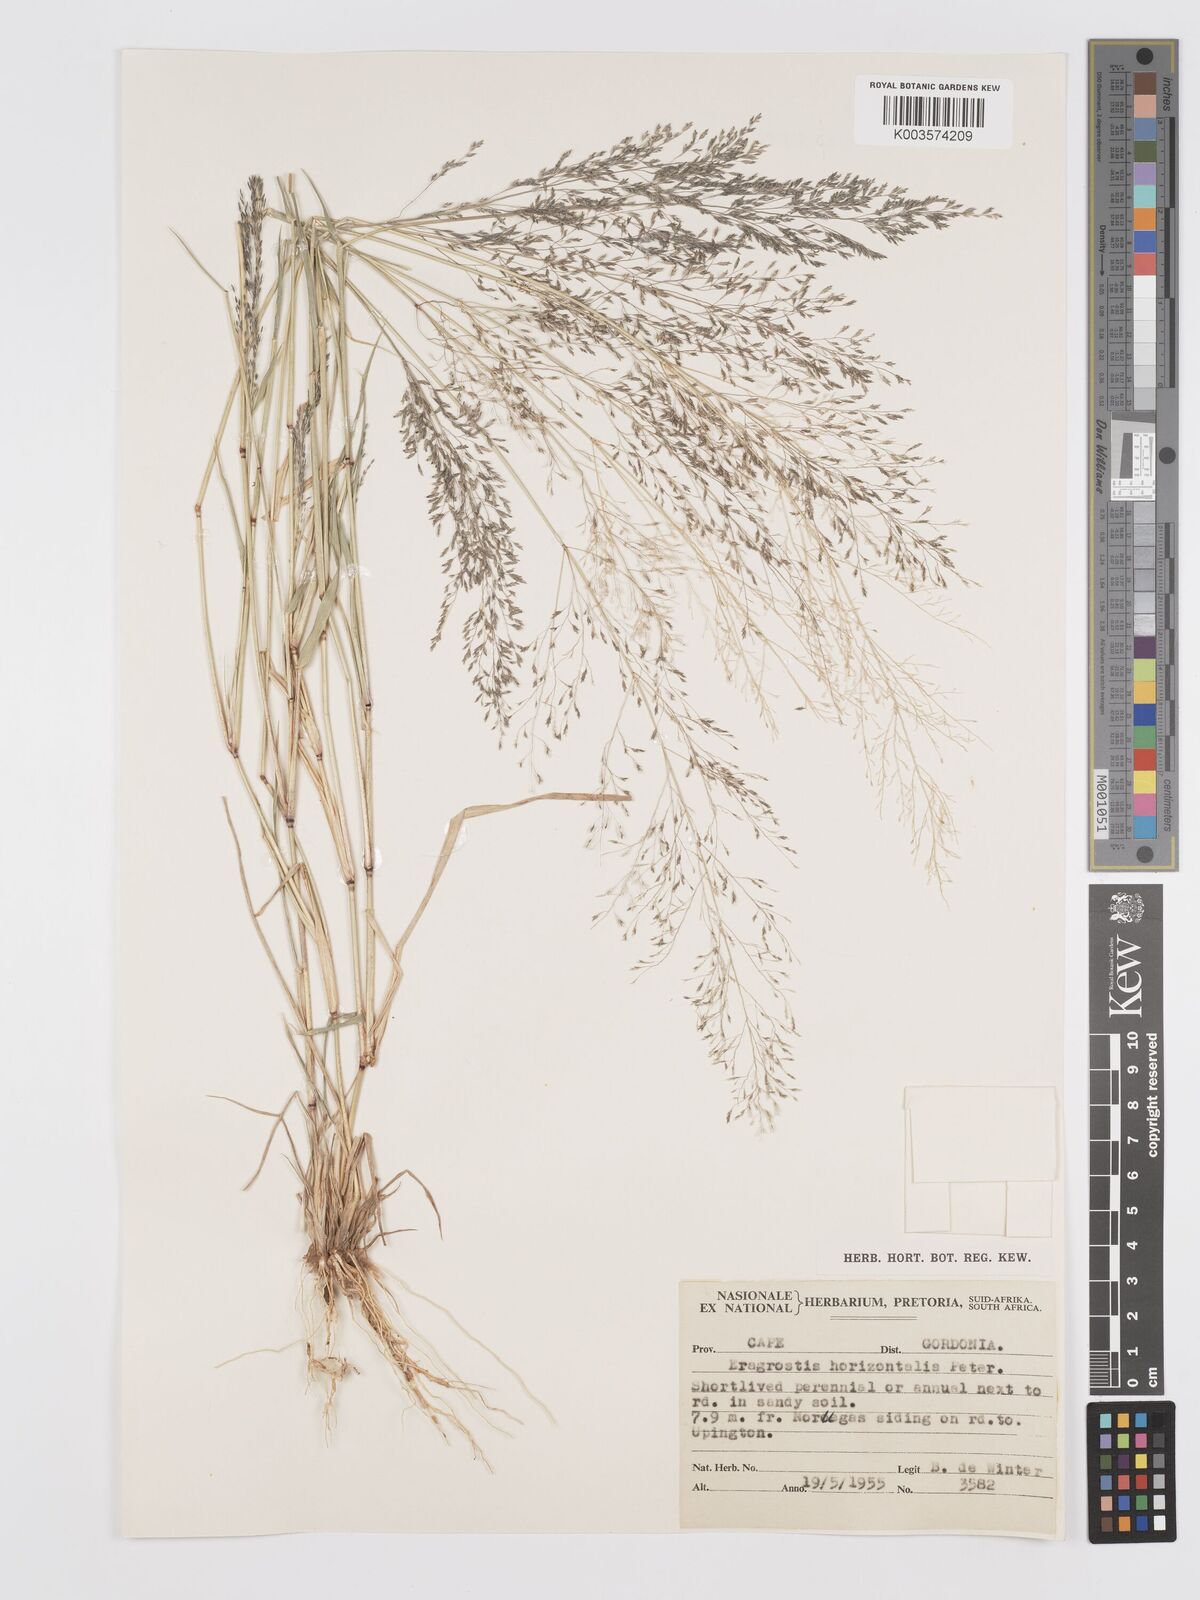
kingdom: Plantae
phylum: Tracheophyta
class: Liliopsida
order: Poales
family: Poaceae
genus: Eragrostis
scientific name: Eragrostis cylindriflora
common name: Cylinderflower lovegrass
